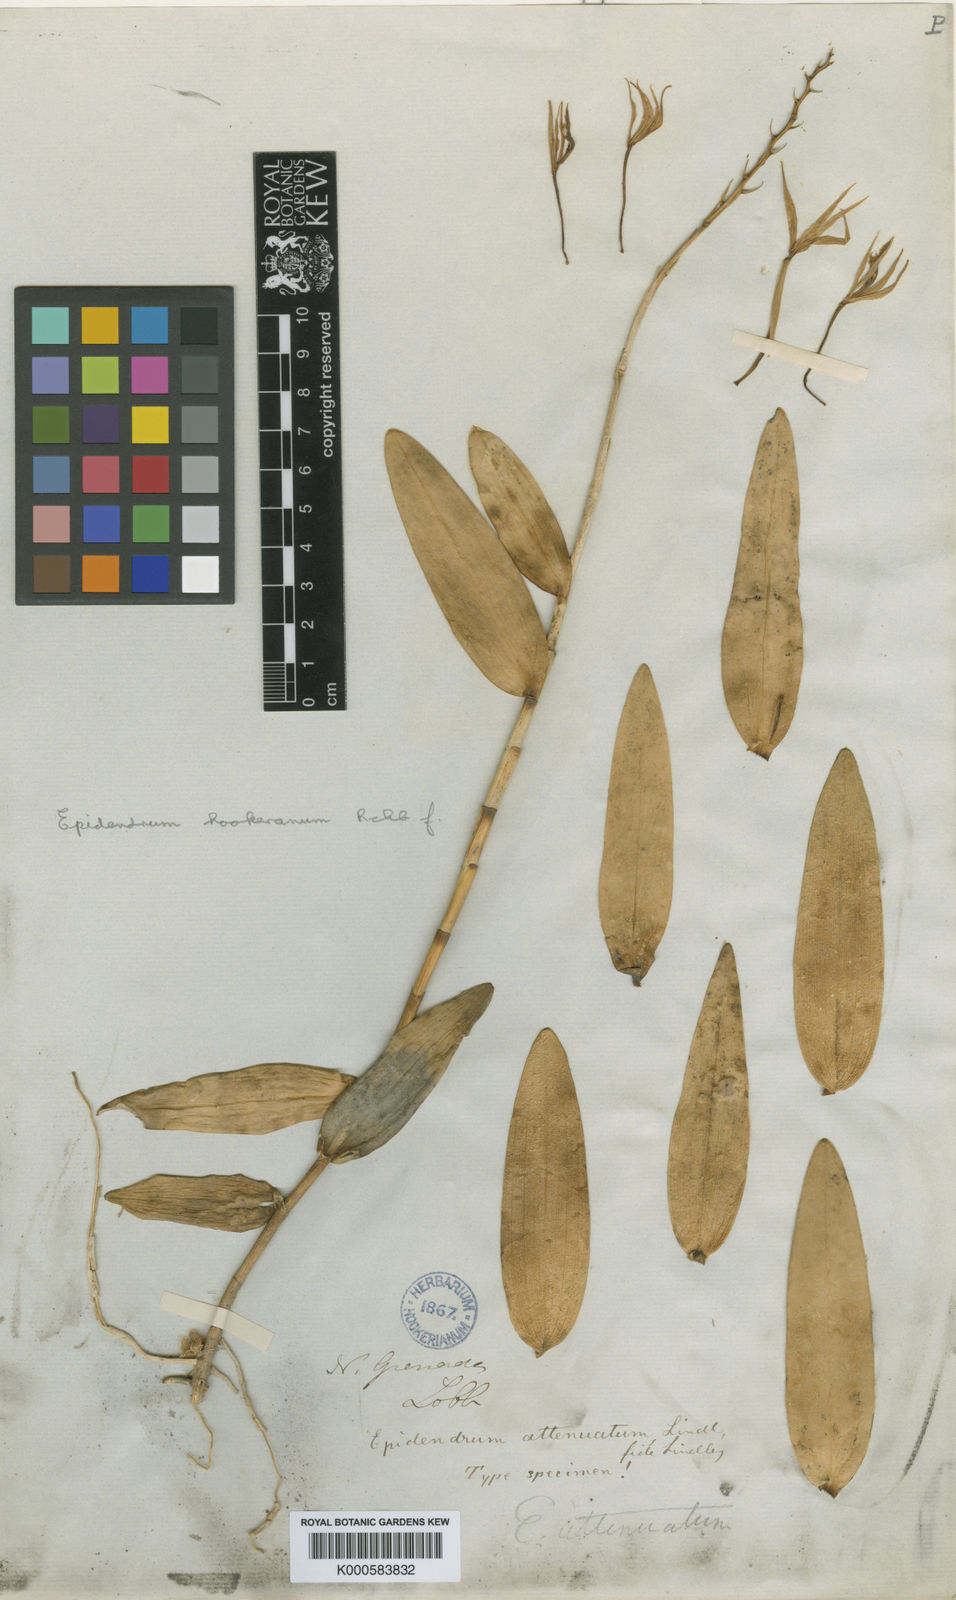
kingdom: Plantae
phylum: Tracheophyta
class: Liliopsida
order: Asparagales
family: Orchidaceae
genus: Epidendrum
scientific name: Epidendrum hookerianum
